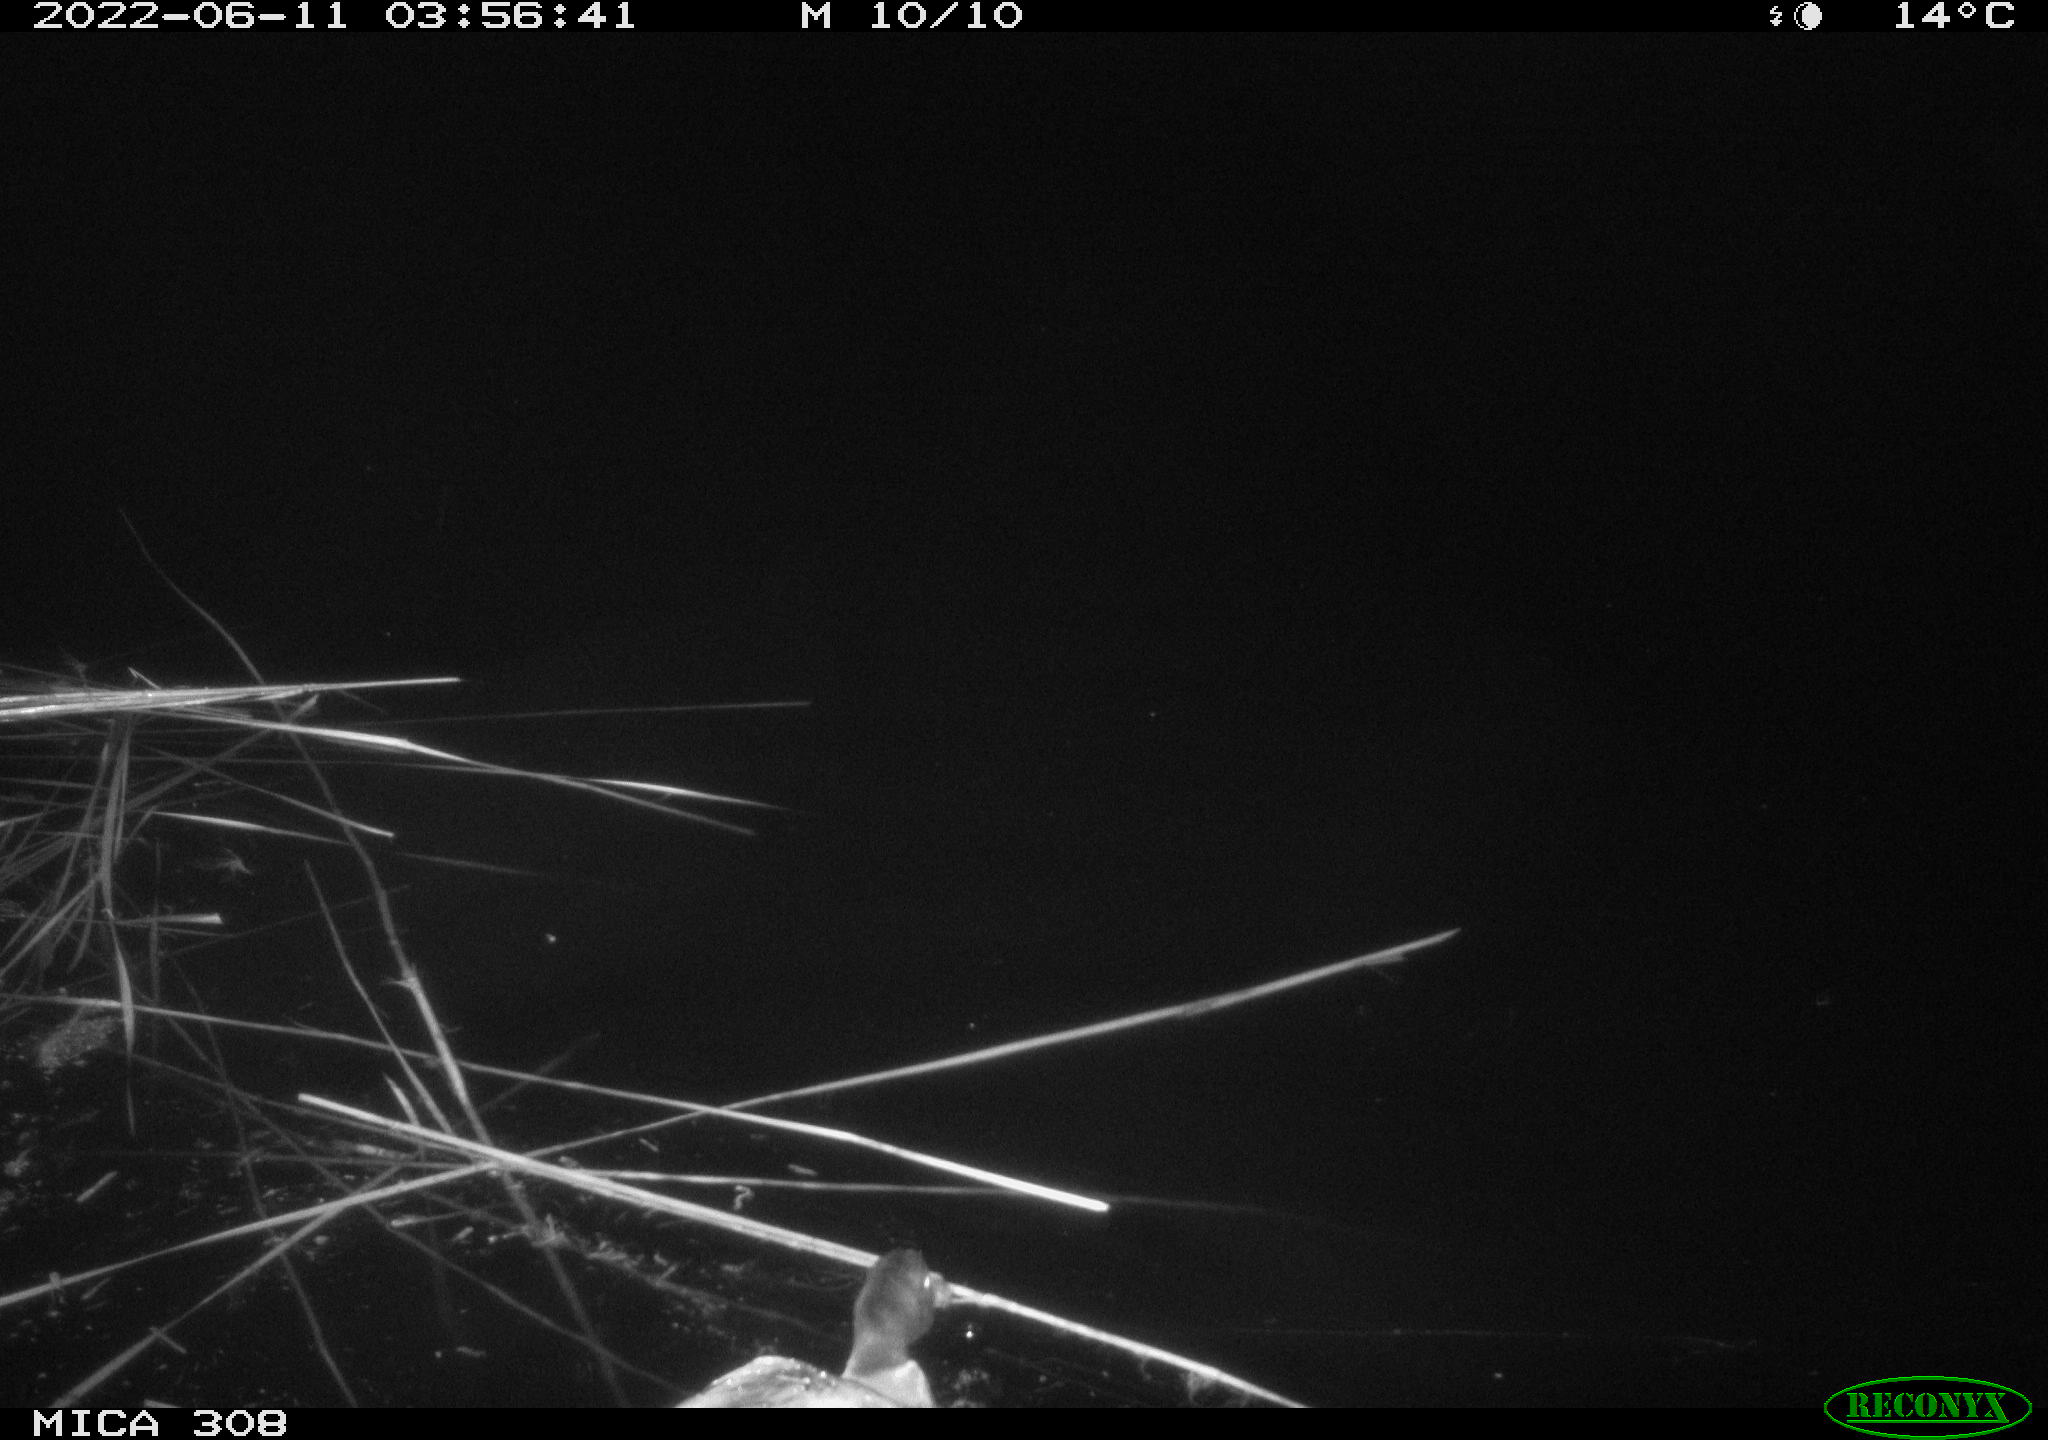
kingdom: Animalia
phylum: Chordata
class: Aves
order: Anseriformes
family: Anatidae
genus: Anas
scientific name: Anas platyrhynchos
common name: Mallard
